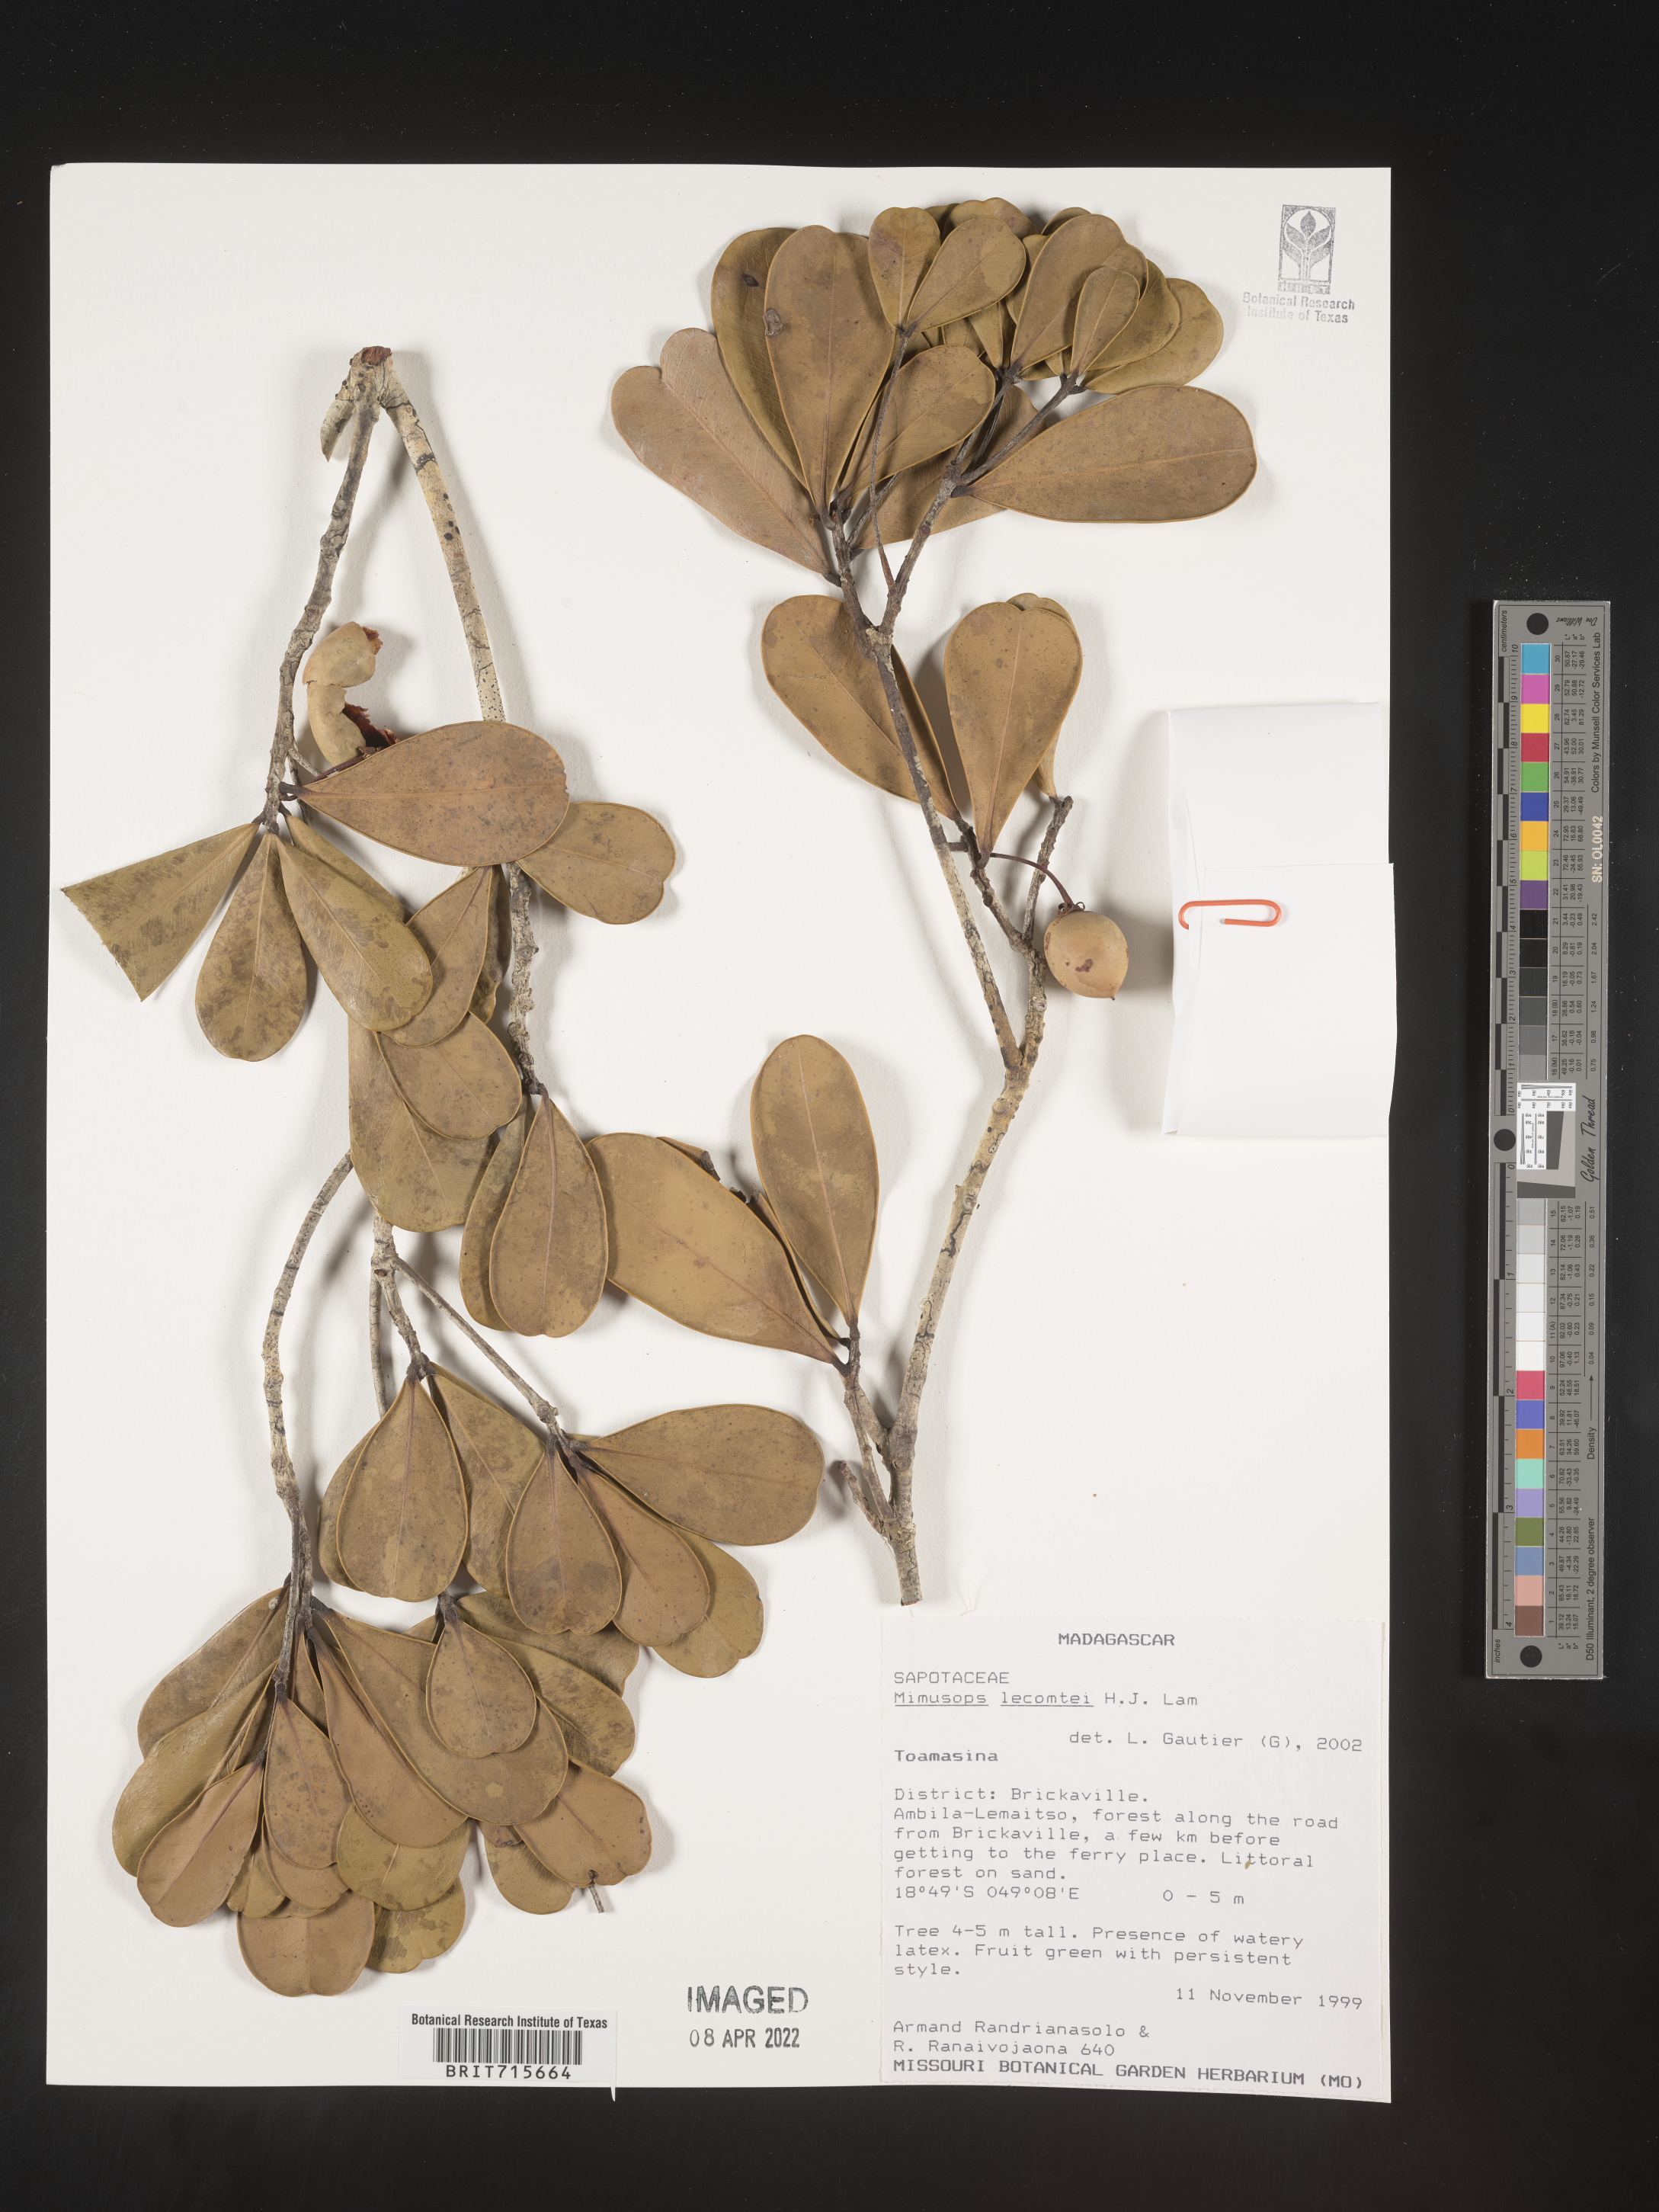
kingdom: Plantae
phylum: Tracheophyta
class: Magnoliopsida
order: Ericales
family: Sapotaceae
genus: Mimusops
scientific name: Mimusops
